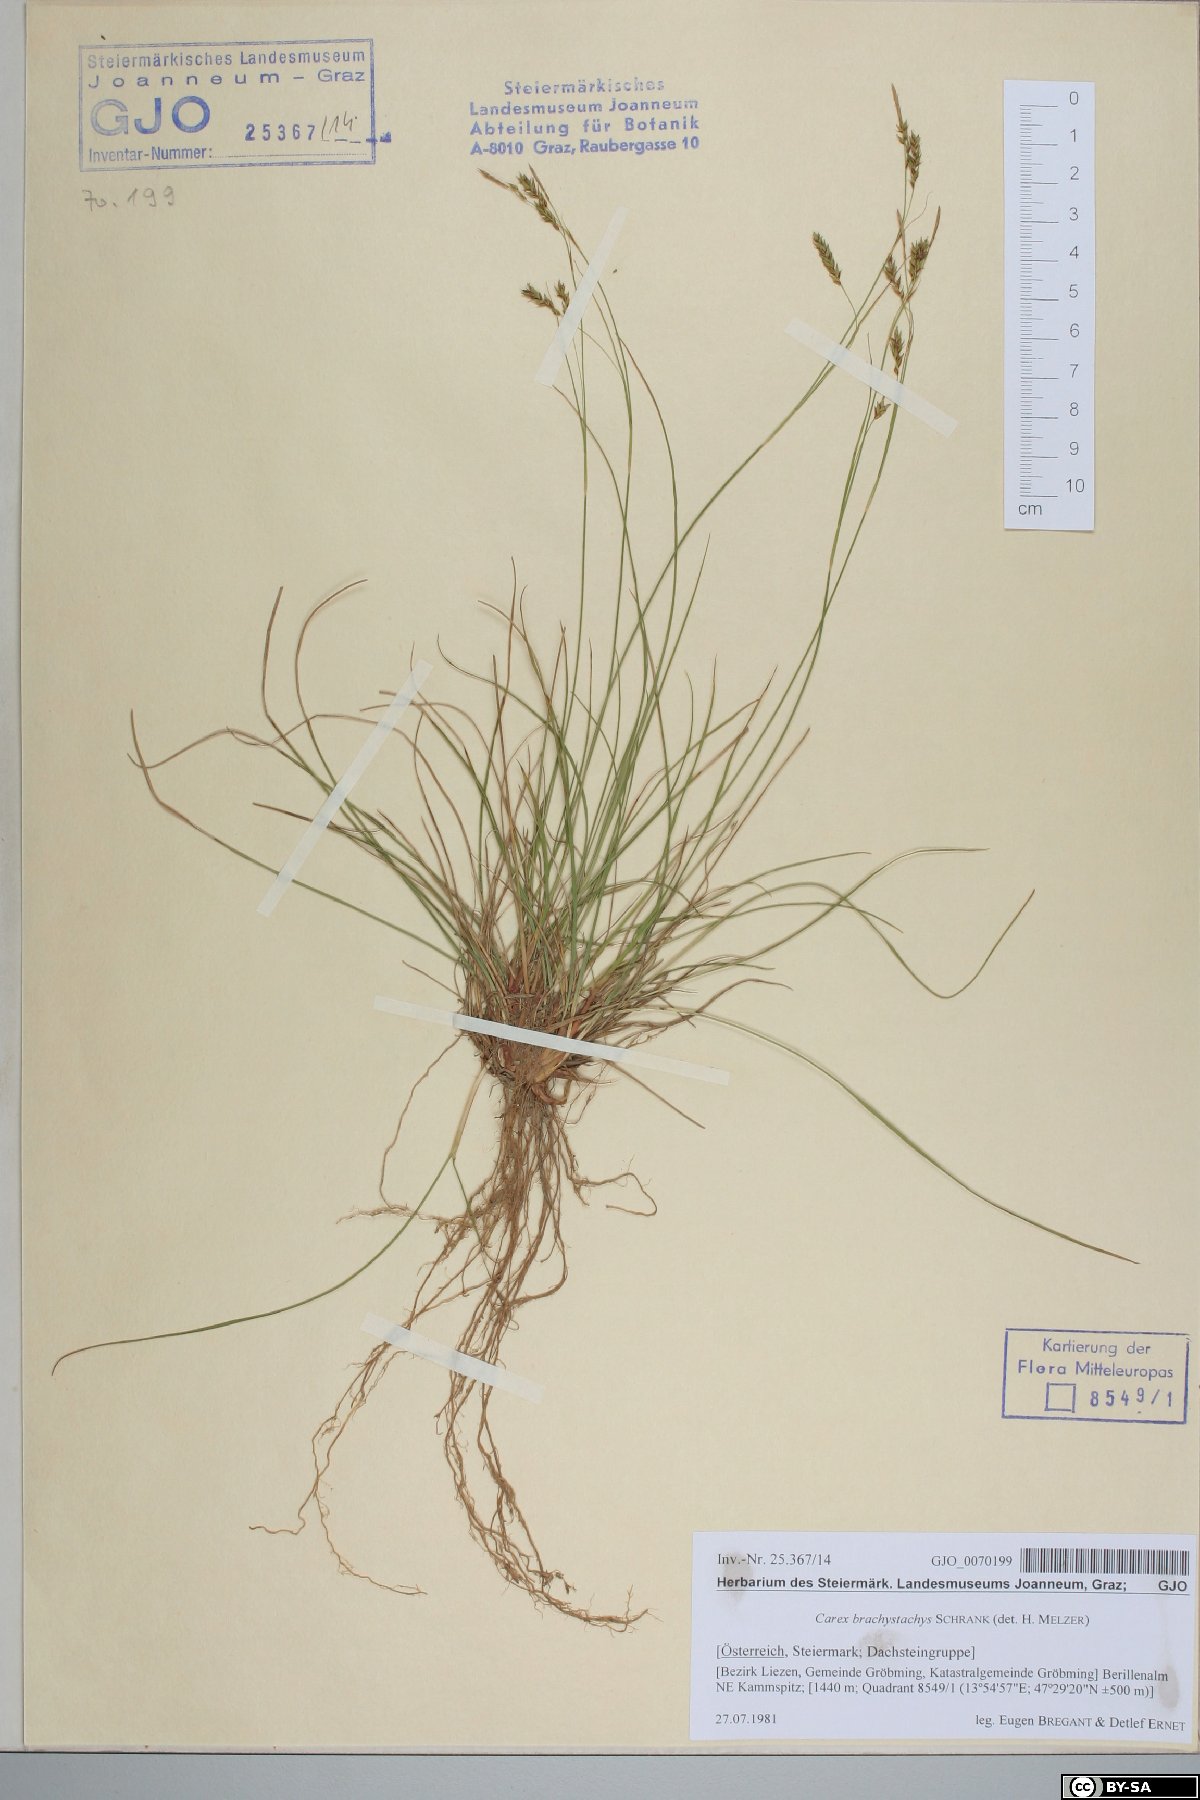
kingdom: Plantae
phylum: Tracheophyta
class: Liliopsida
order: Poales
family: Cyperaceae
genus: Carex
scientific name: Carex brachystachys
